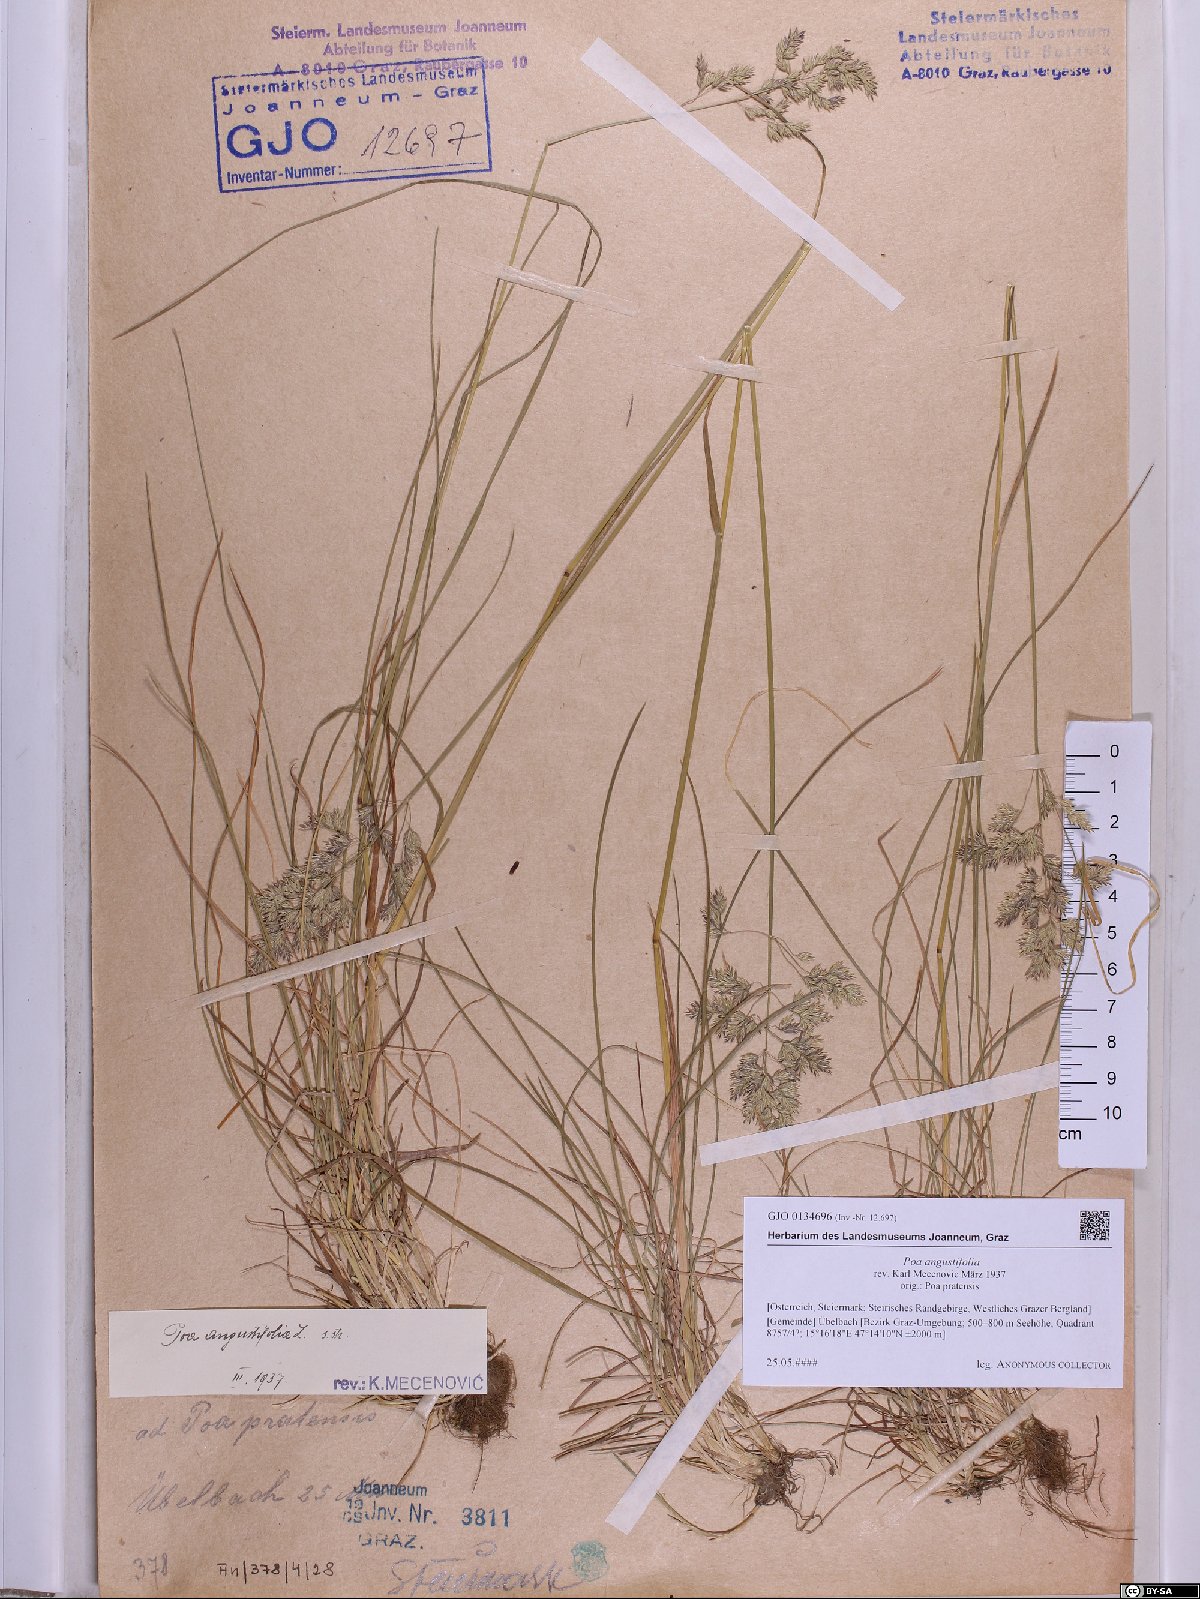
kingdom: Plantae
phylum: Tracheophyta
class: Liliopsida
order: Poales
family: Poaceae
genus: Poa
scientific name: Poa angustifolia
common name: Narrow-leaved meadow-grass
